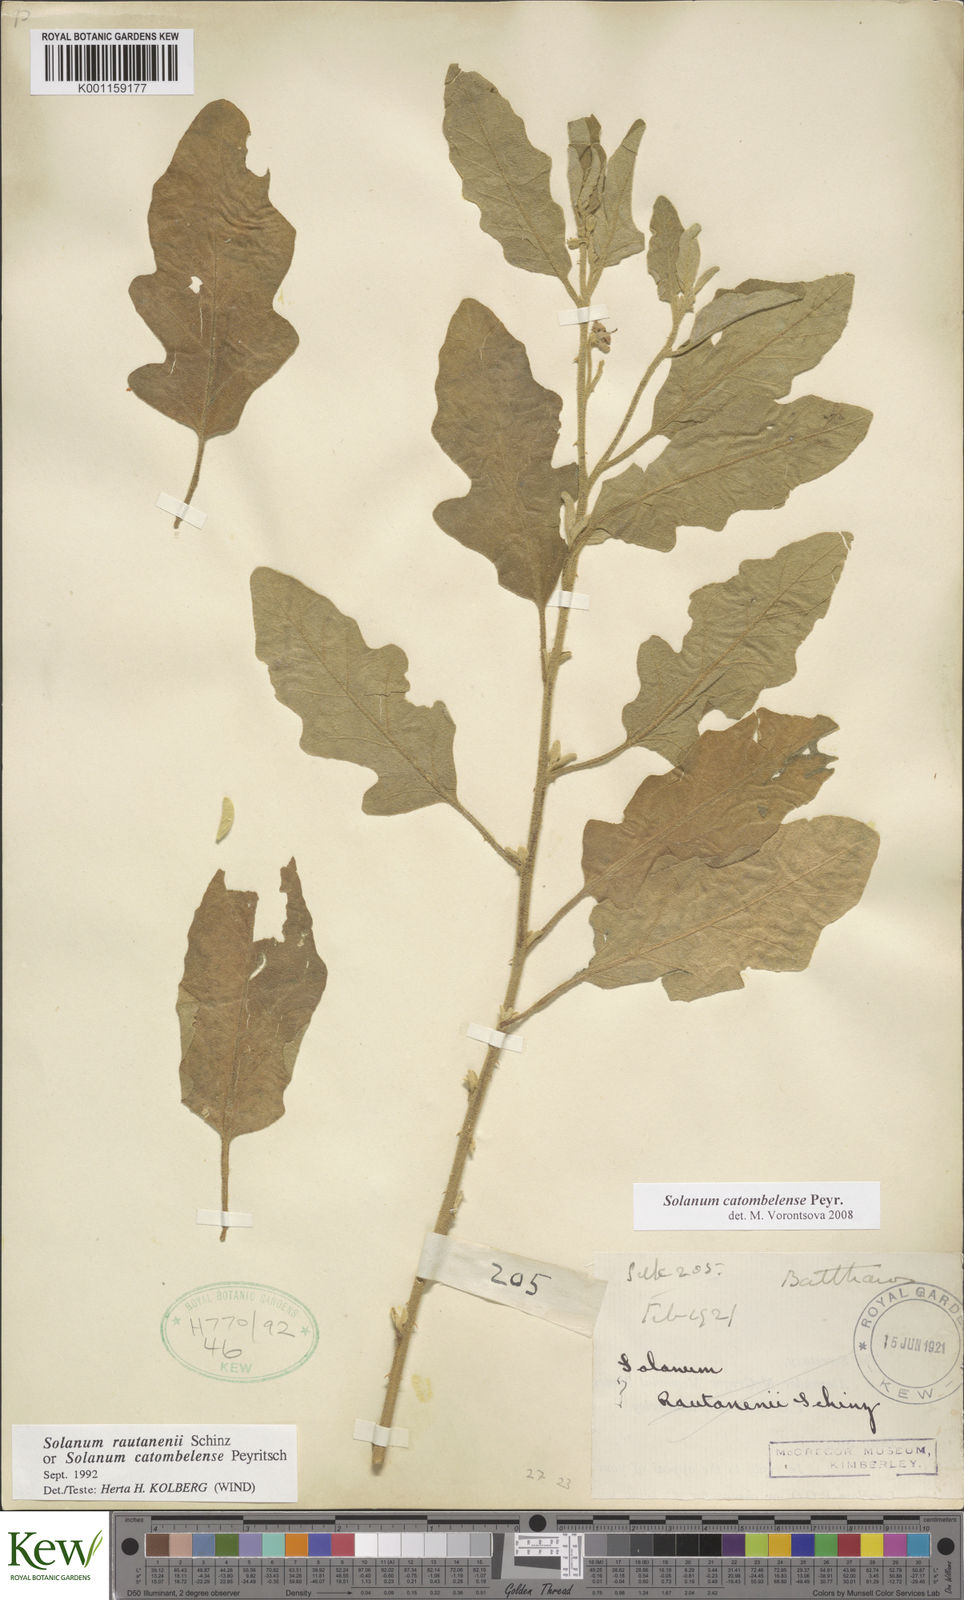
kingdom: Plantae
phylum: Tracheophyta
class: Magnoliopsida
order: Solanales
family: Solanaceae
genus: Solanum
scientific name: Solanum catombelense
